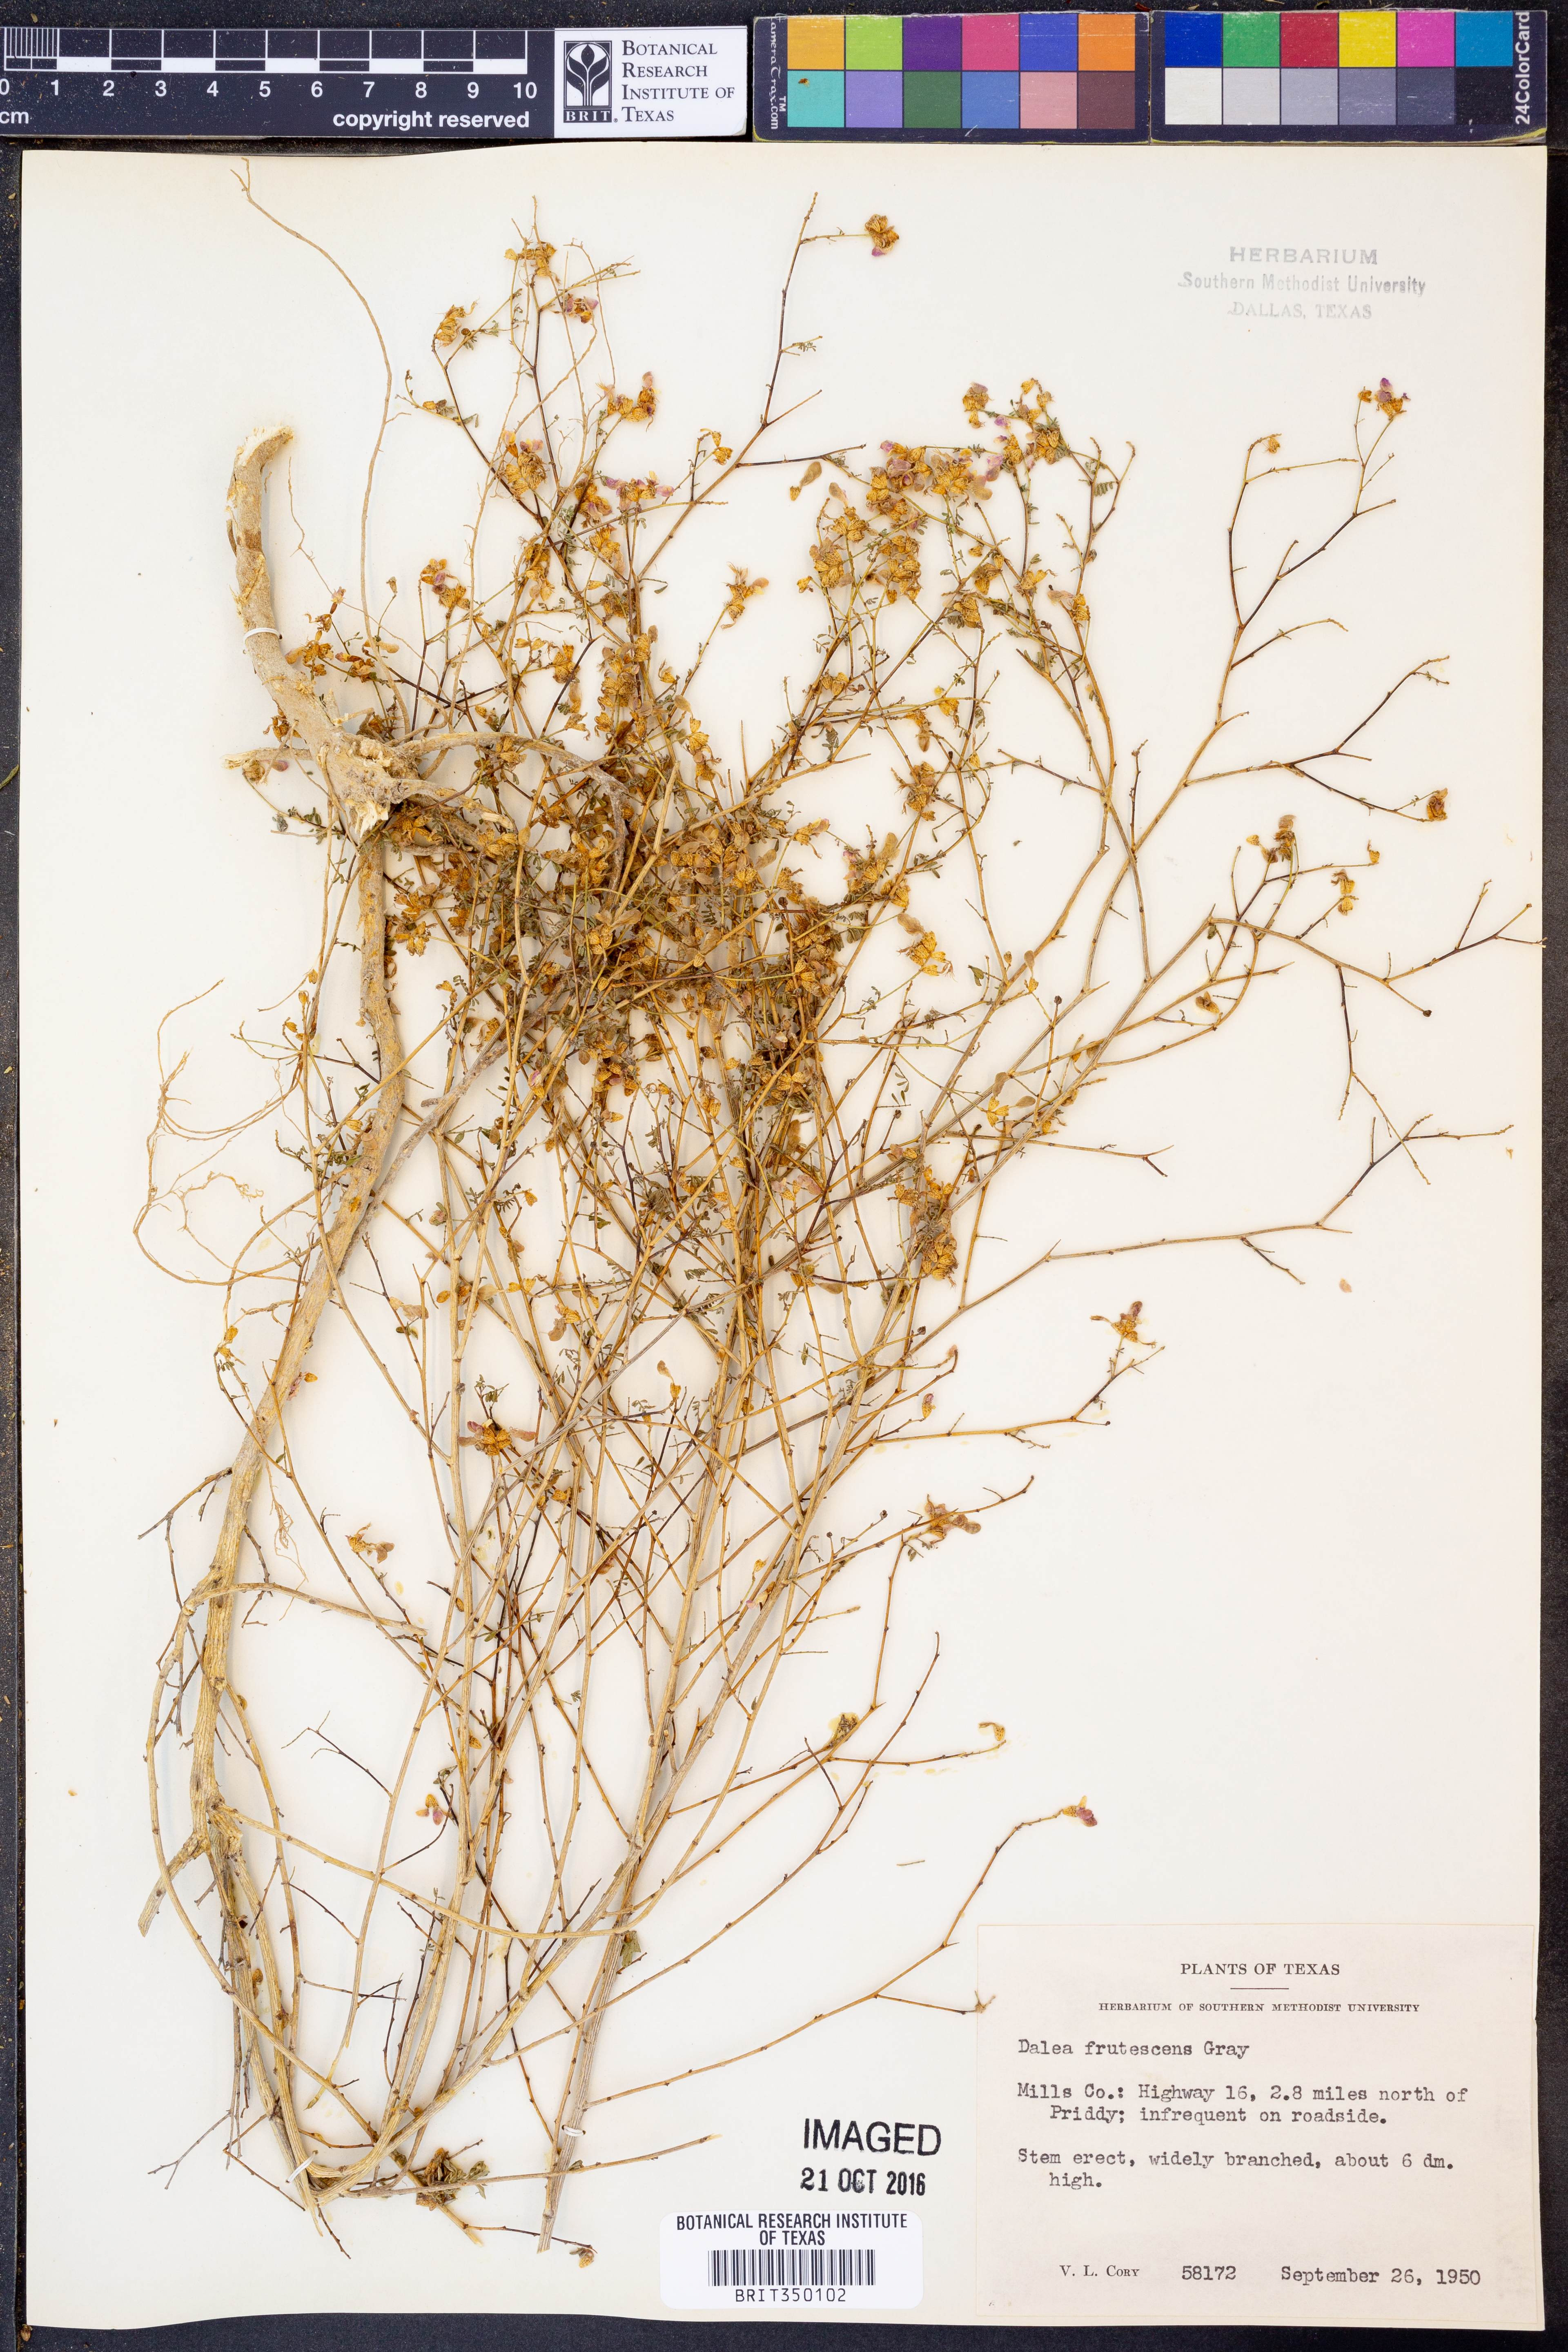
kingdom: Plantae
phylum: Tracheophyta
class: Magnoliopsida
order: Fabales
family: Fabaceae
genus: Dalea
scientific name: Dalea frutescens
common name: Black dalea
